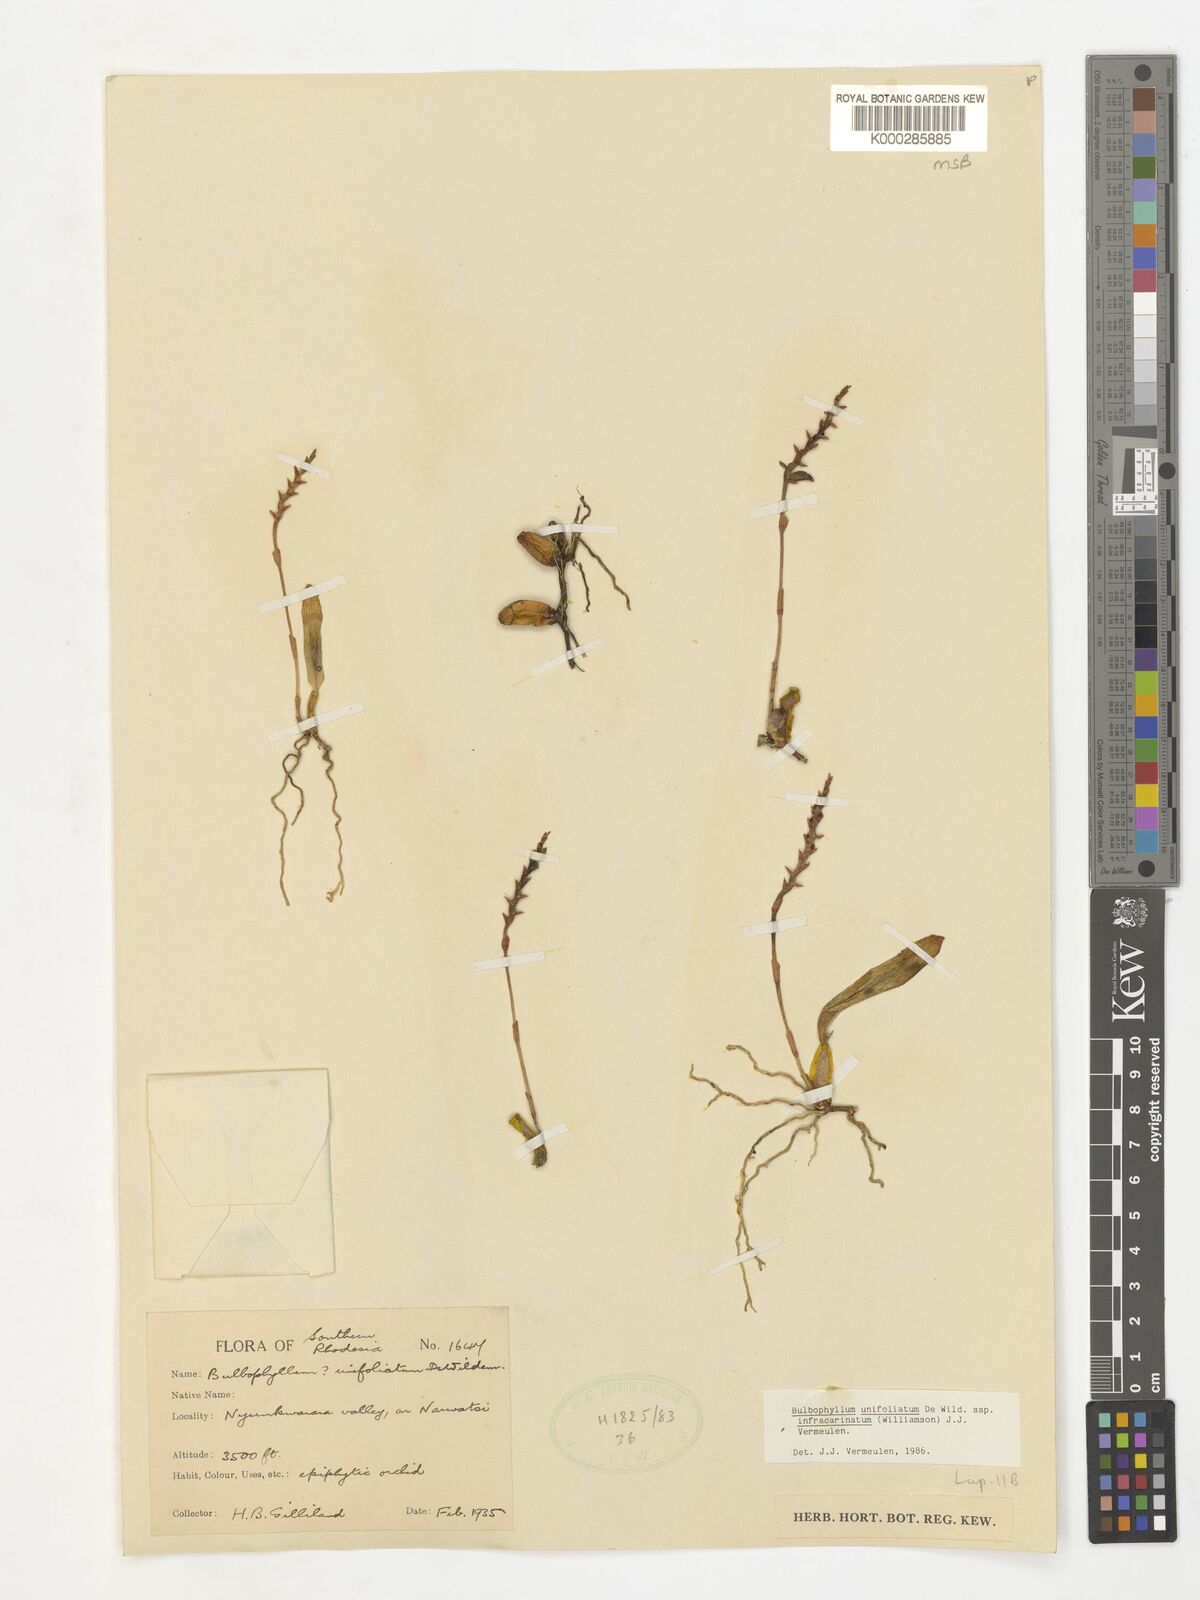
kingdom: Plantae
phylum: Tracheophyta
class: Liliopsida
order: Asparagales
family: Orchidaceae
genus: Bulbophyllum
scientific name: Bulbophyllum unifoliatum
